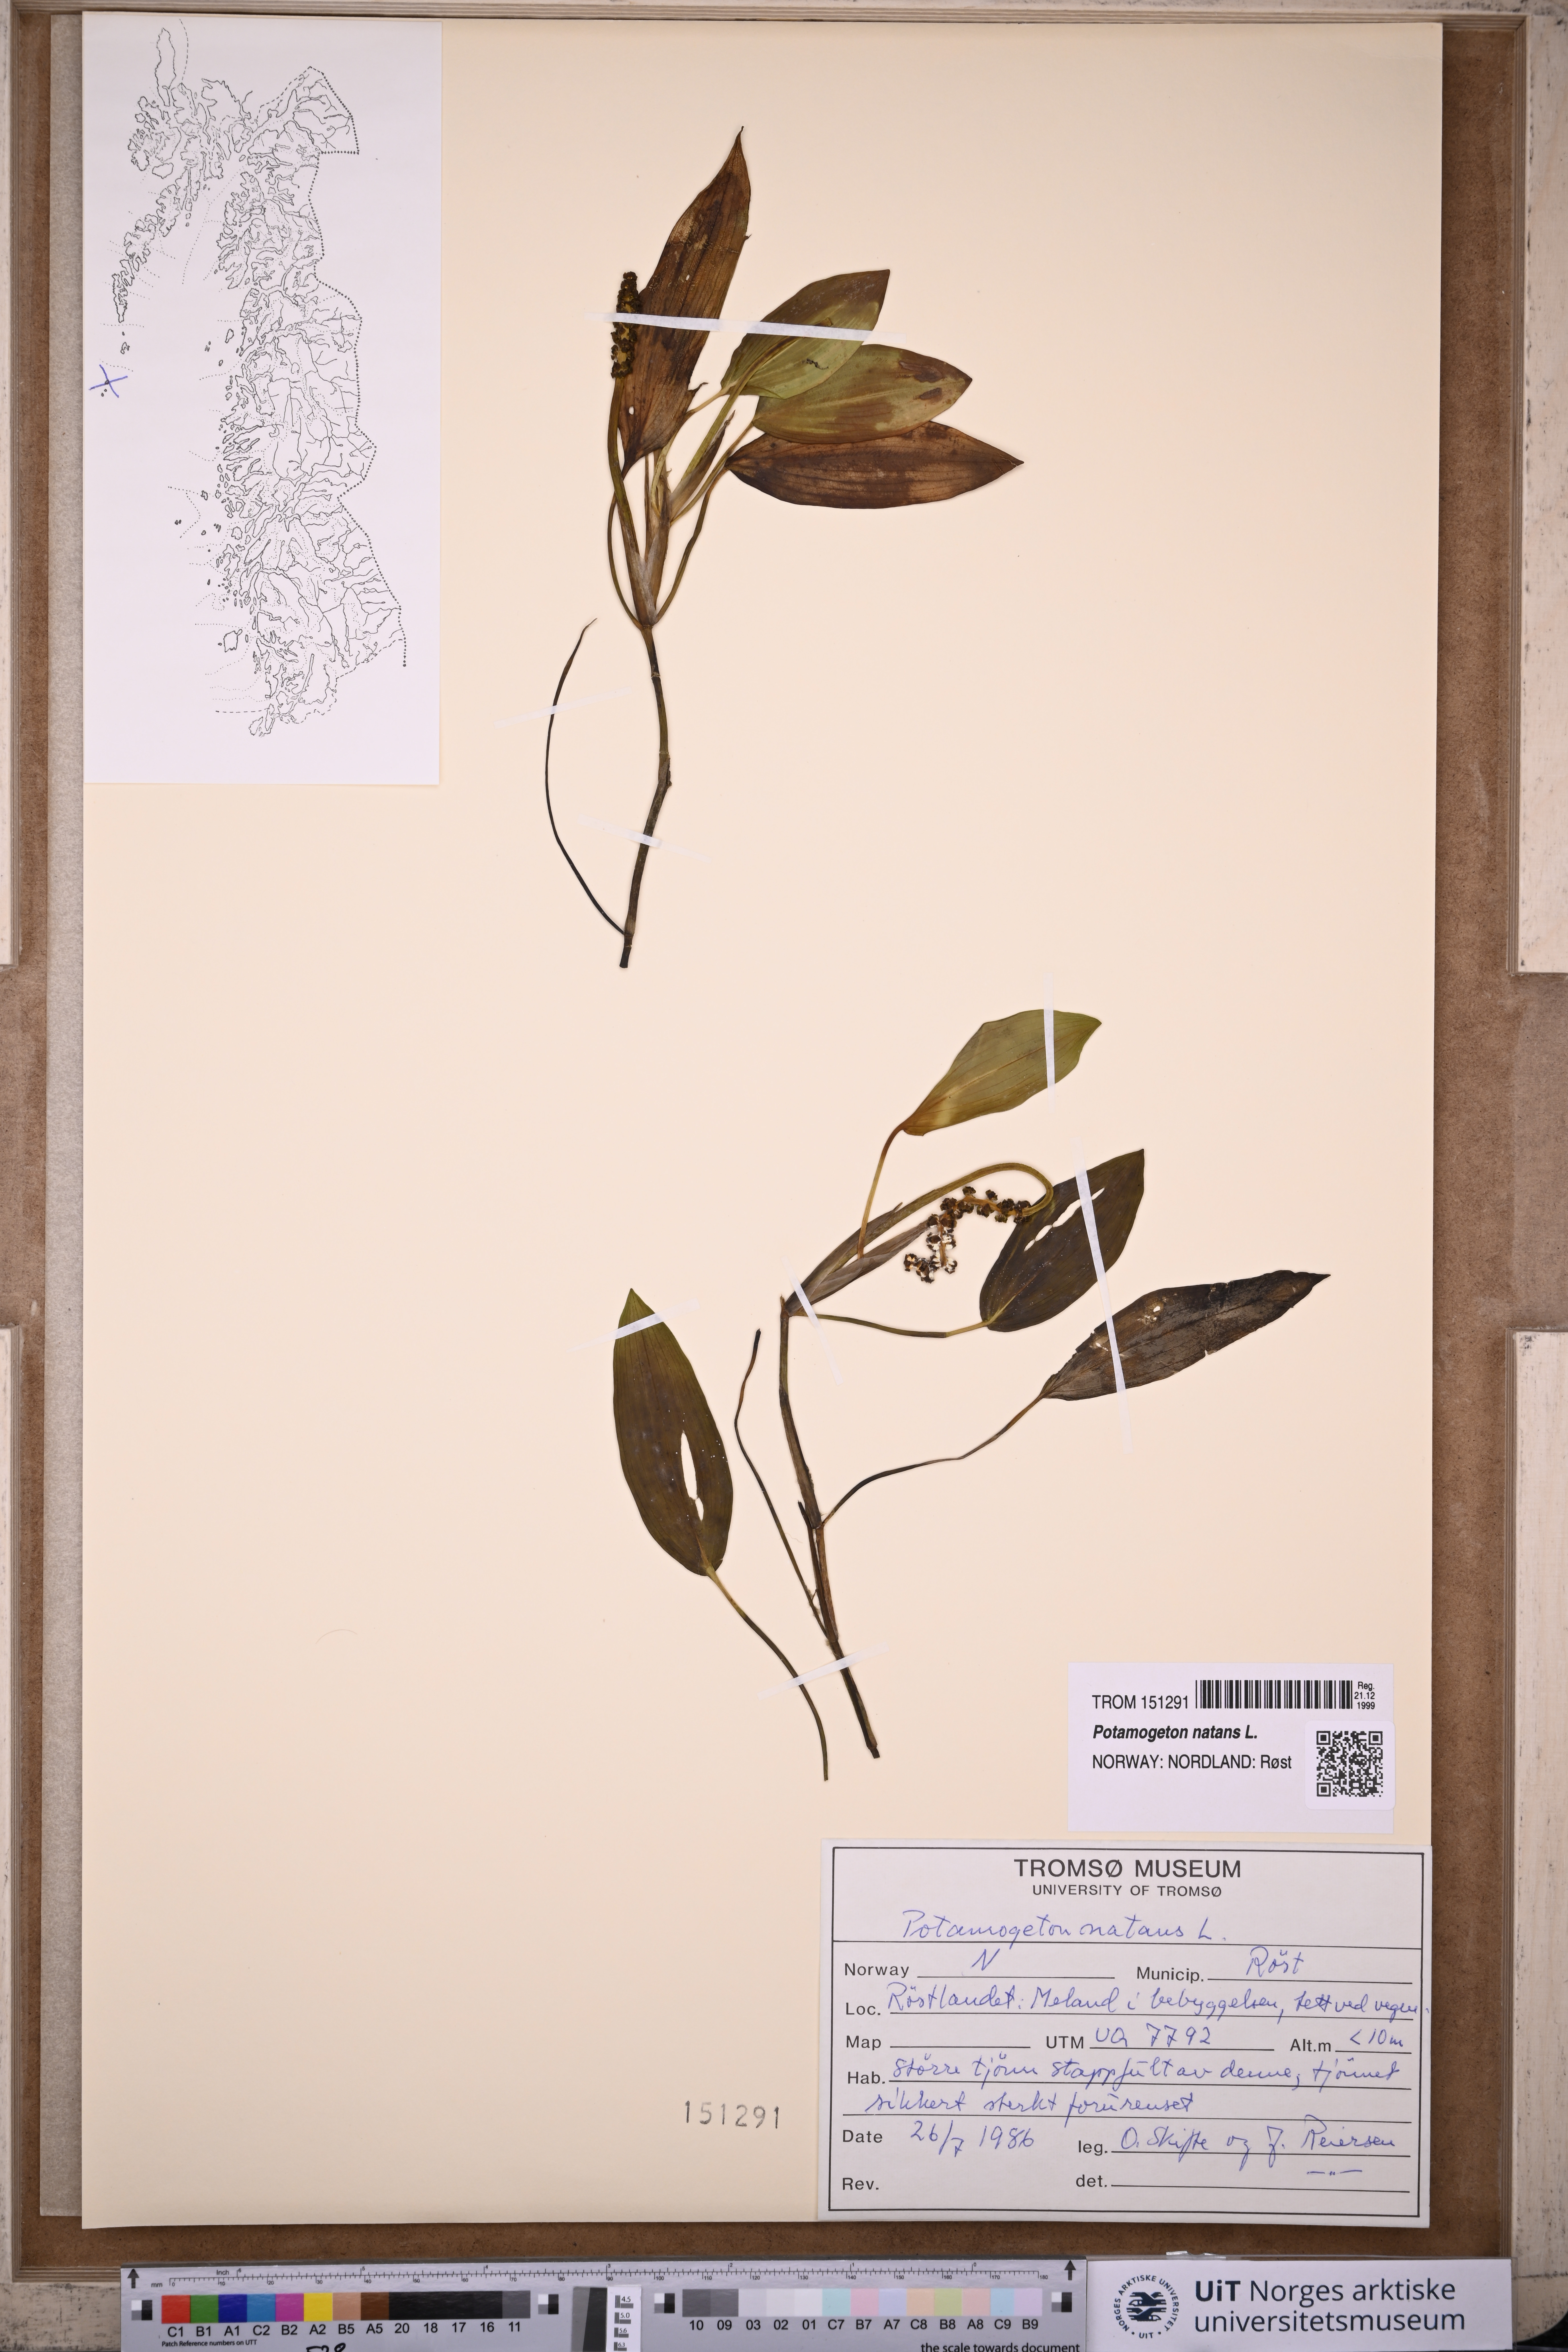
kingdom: Plantae
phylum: Tracheophyta
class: Liliopsida
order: Alismatales
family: Potamogetonaceae
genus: Potamogeton
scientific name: Potamogeton natans
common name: Broad-leaved pondweed
